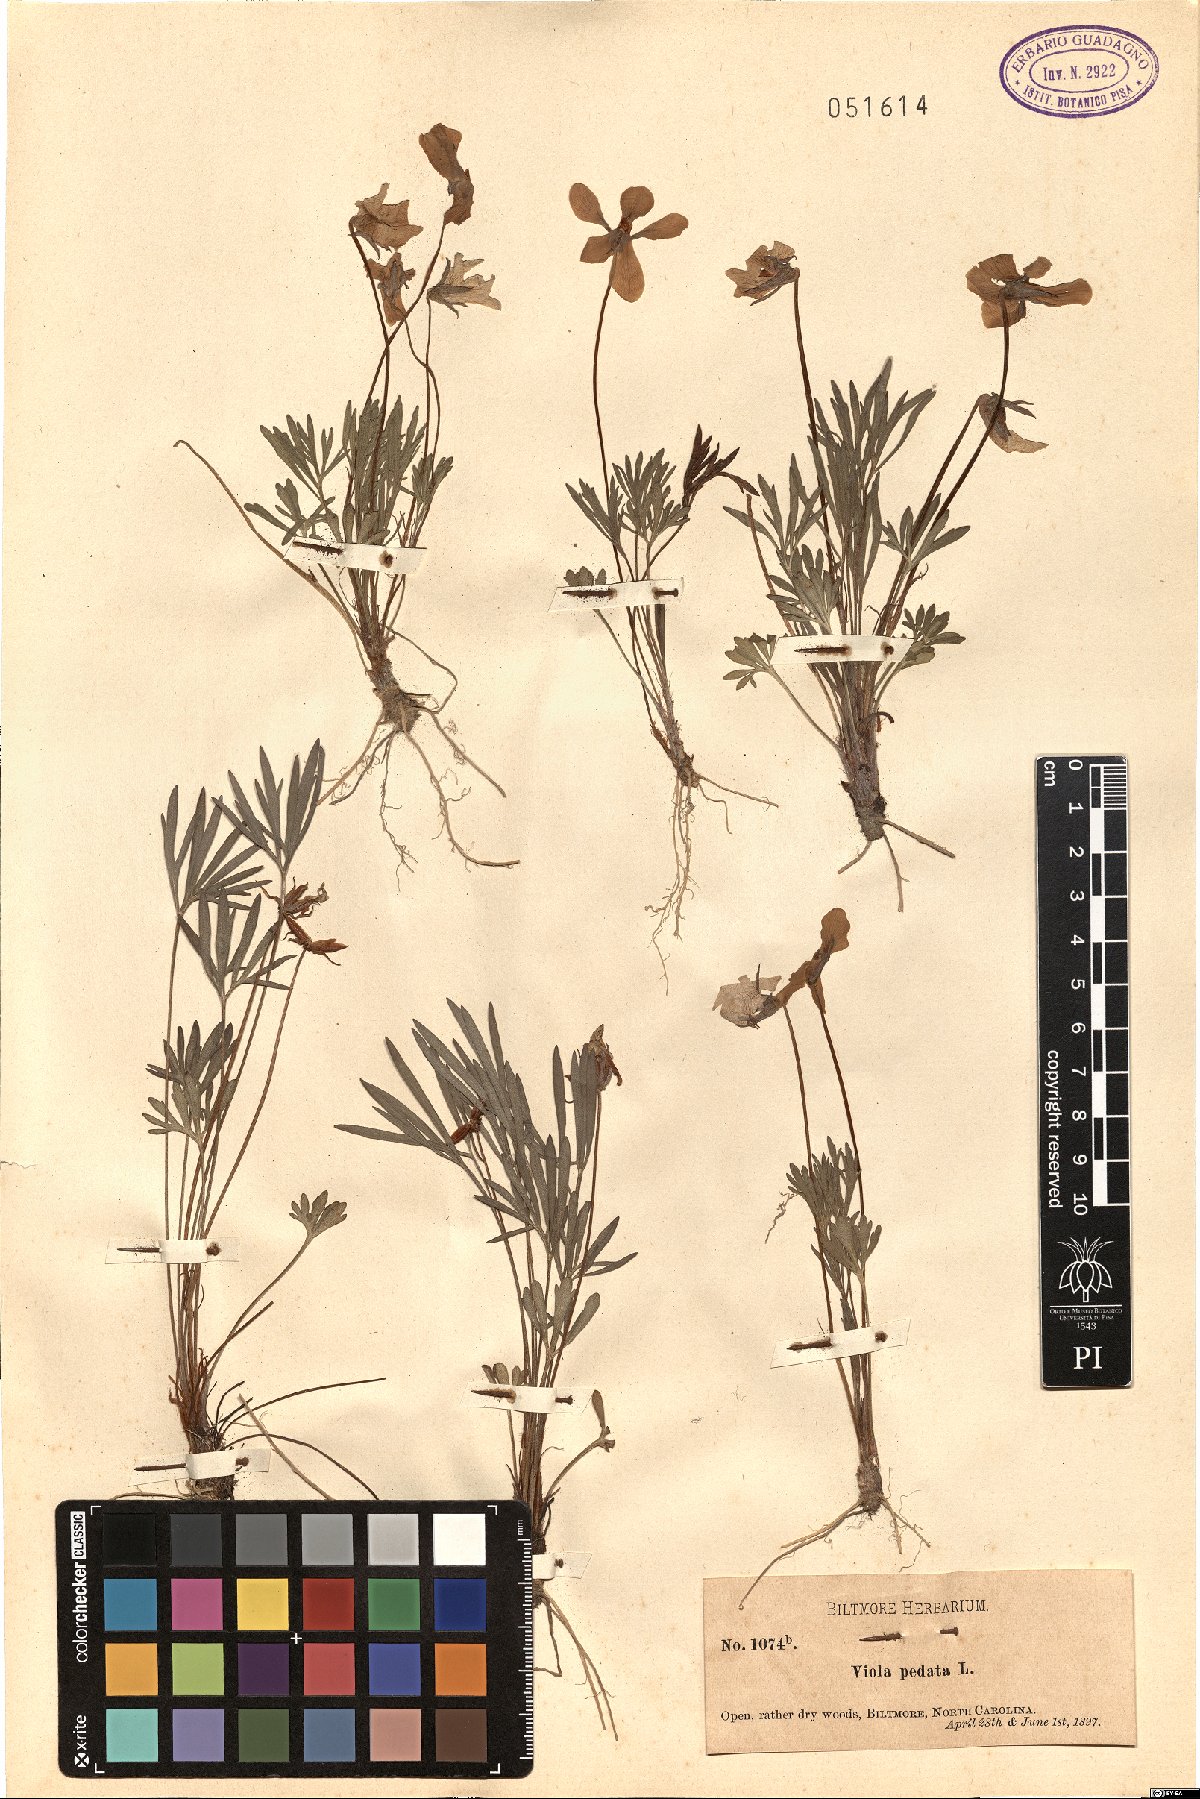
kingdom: Plantae
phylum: Tracheophyta
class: Magnoliopsida
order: Malpighiales
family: Violaceae
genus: Viola
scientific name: Viola pedata
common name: Pansy violet
